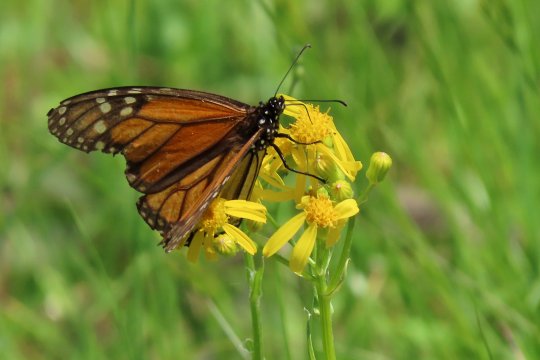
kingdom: Animalia
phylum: Arthropoda
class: Insecta
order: Lepidoptera
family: Nymphalidae
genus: Danaus
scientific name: Danaus plexippus
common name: Monarch
